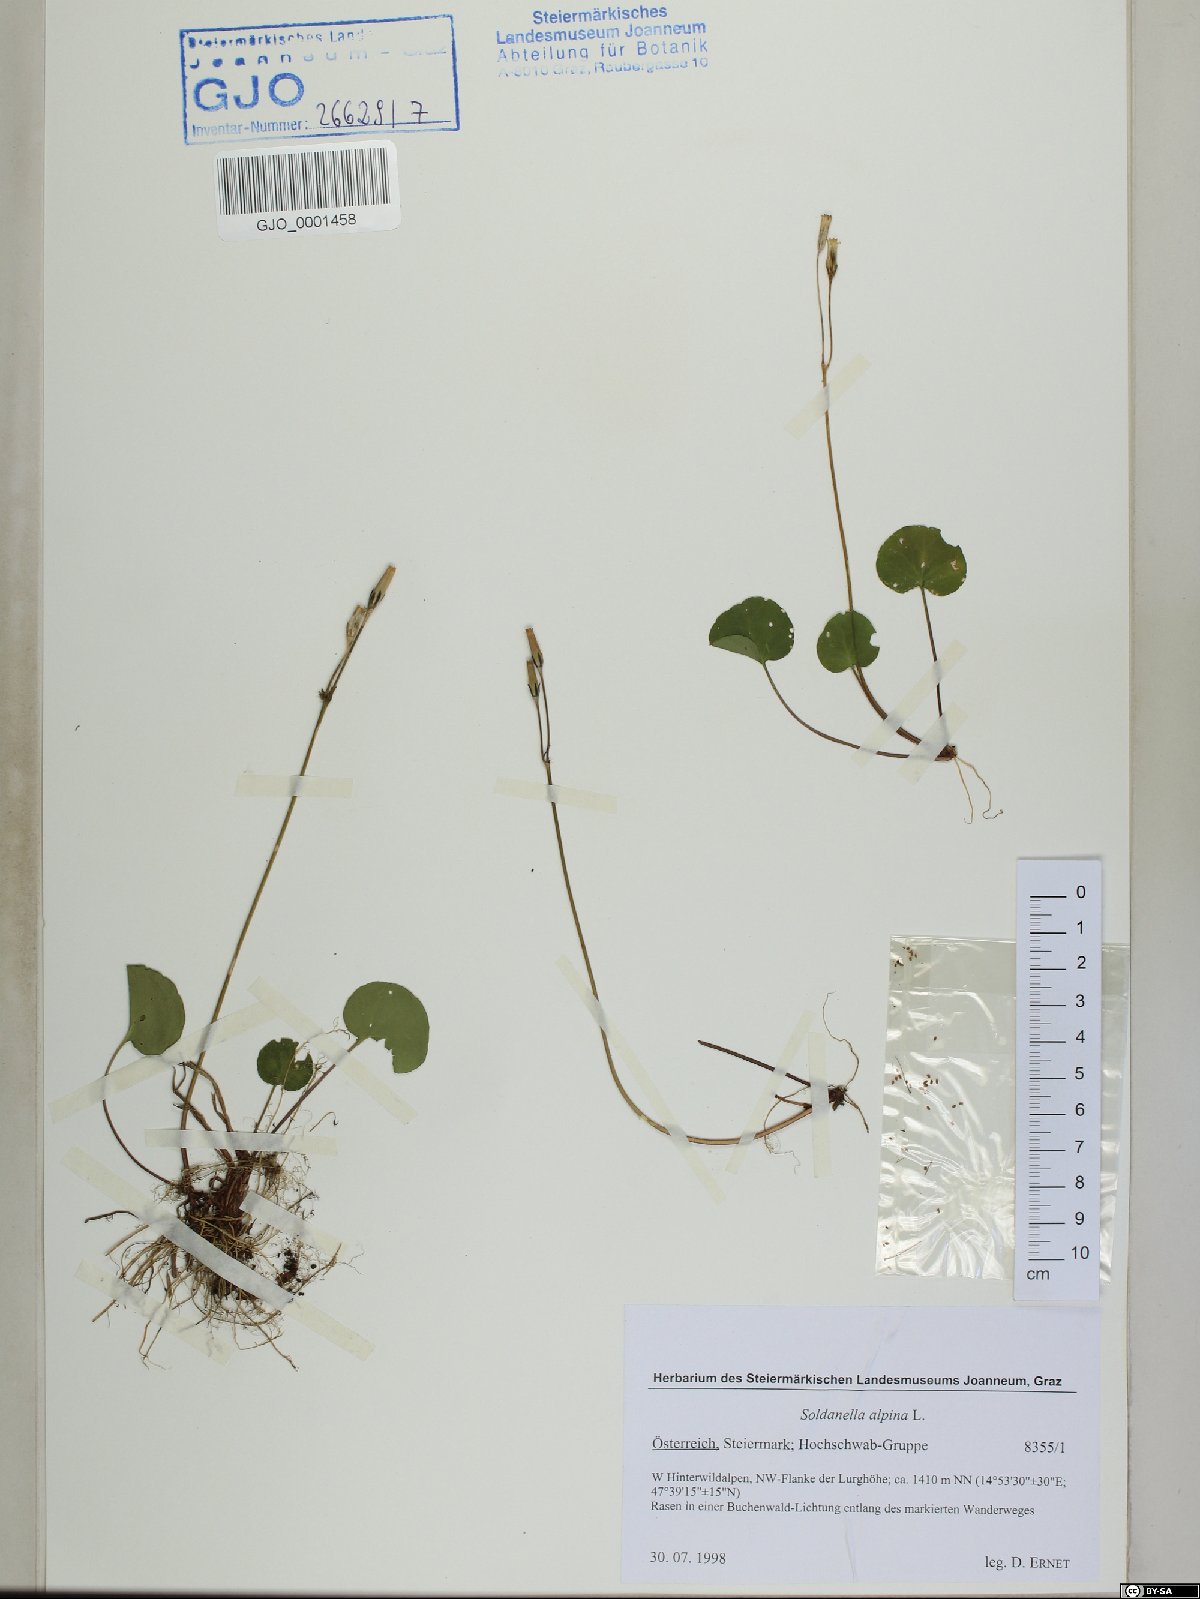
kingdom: Plantae
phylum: Tracheophyta
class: Magnoliopsida
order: Ericales
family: Primulaceae
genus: Soldanella
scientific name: Soldanella alpina
